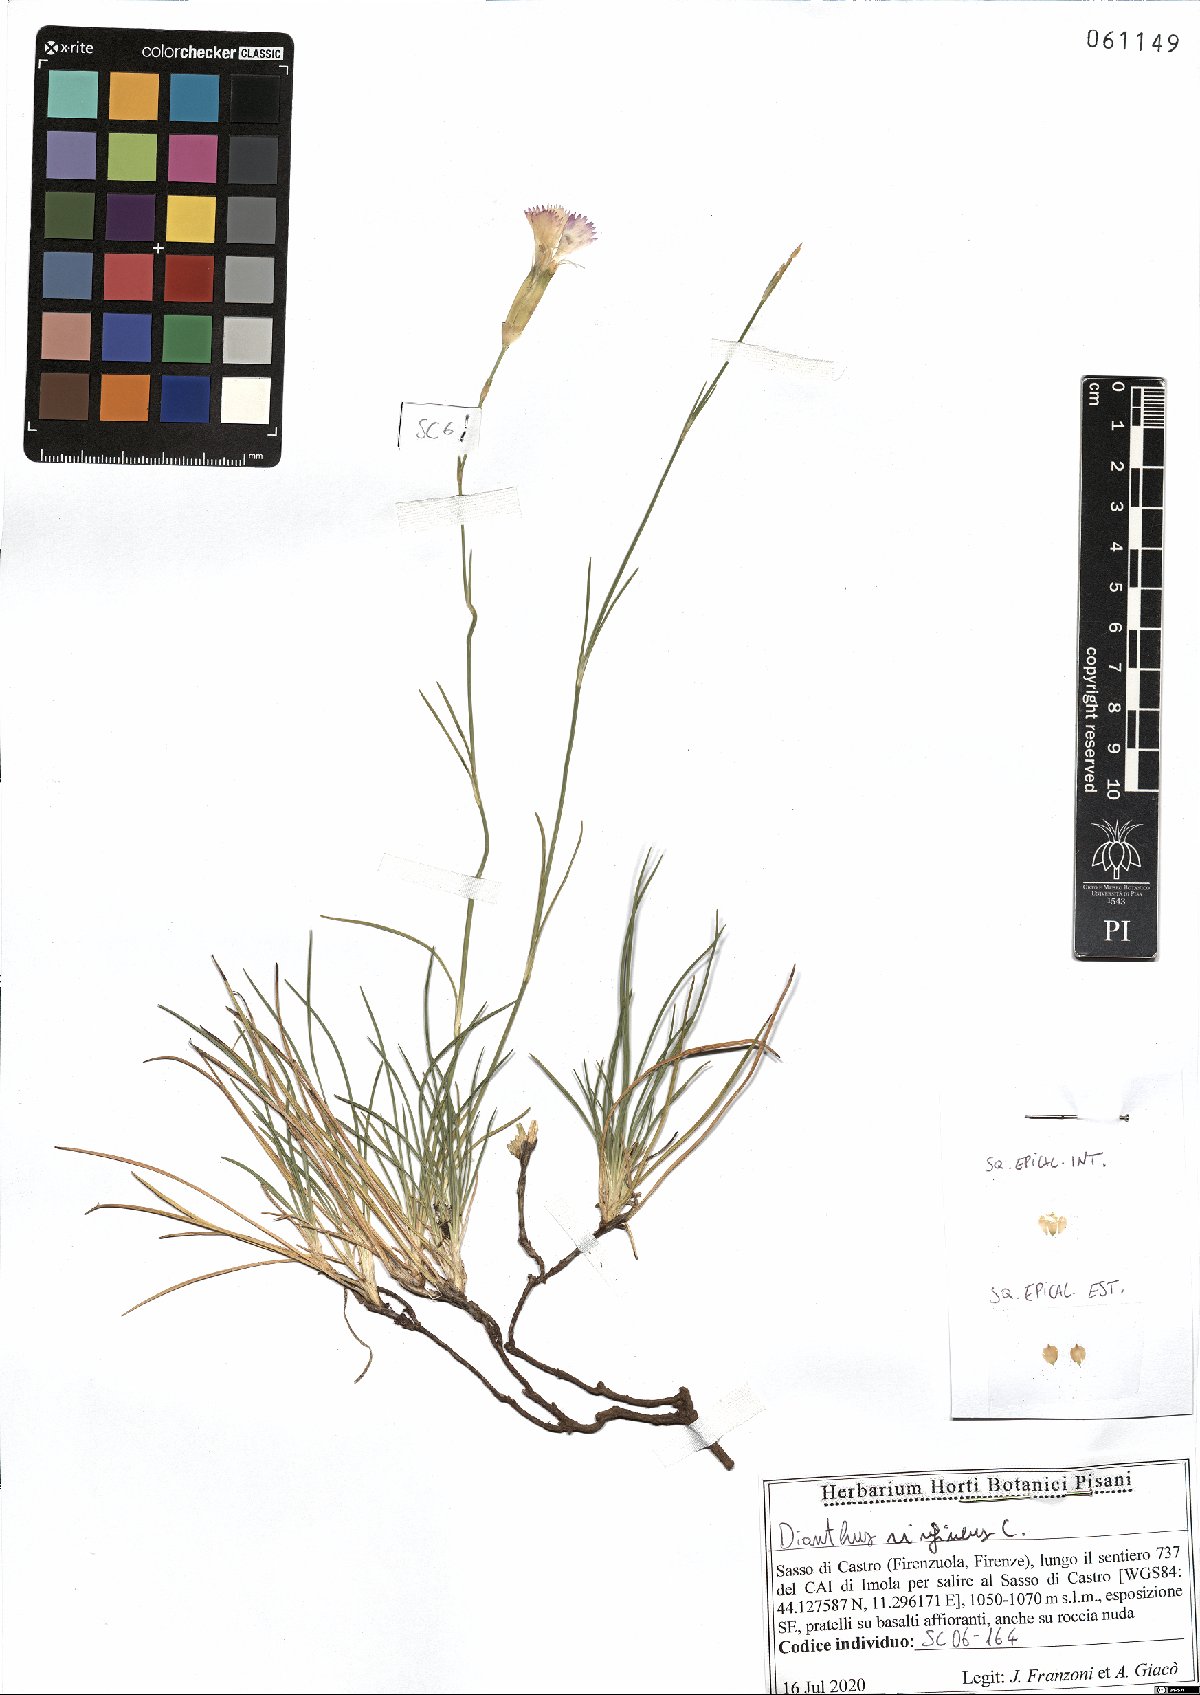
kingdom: Plantae
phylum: Tracheophyta
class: Magnoliopsida
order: Caryophyllales
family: Caryophyllaceae
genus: Dianthus
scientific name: Dianthus virgineus
